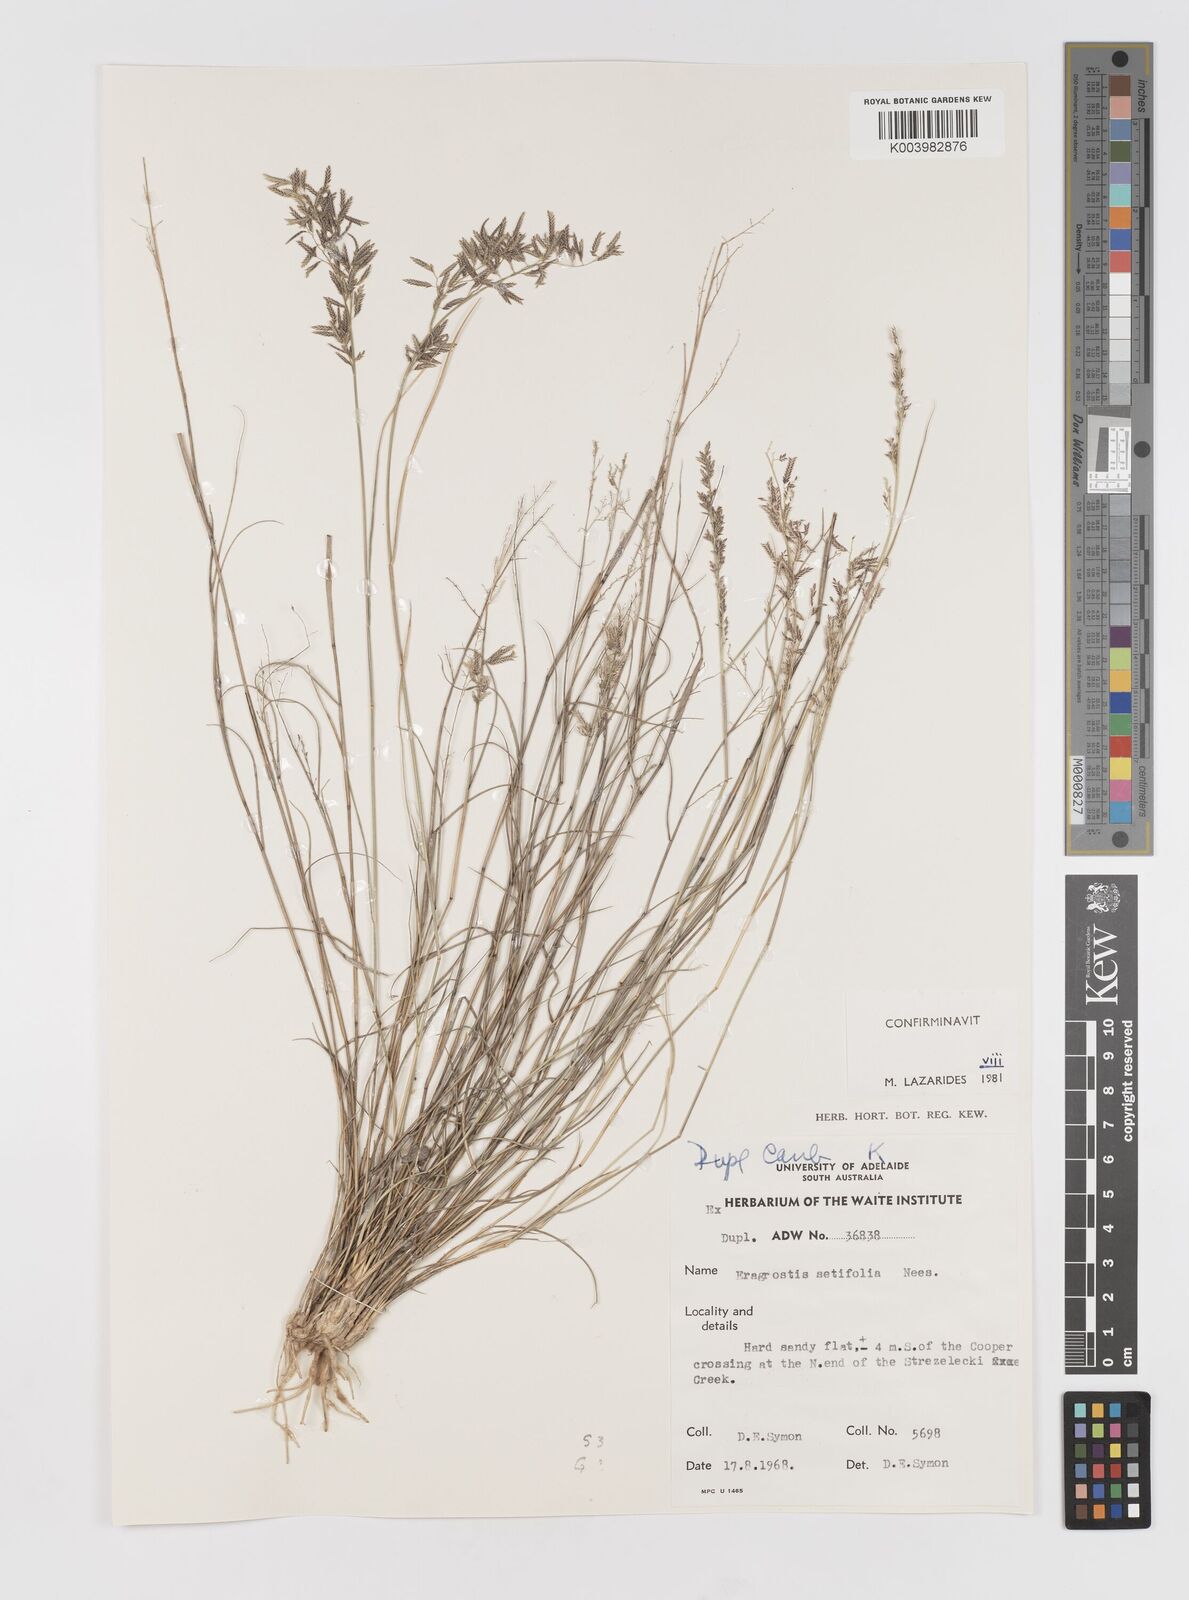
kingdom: Plantae
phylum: Tracheophyta
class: Liliopsida
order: Poales
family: Poaceae
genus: Eragrostis
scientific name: Eragrostis setifolia
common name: Bristleleaf lovegrass
